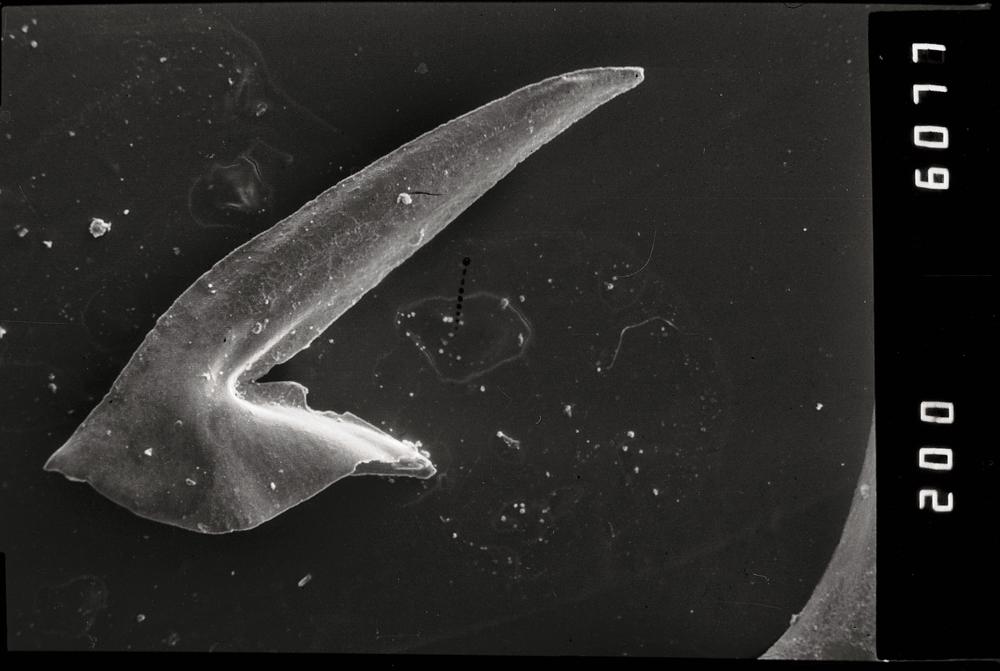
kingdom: Animalia
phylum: Chordata
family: Acodontidae
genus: Tripodus
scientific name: Tripodus
